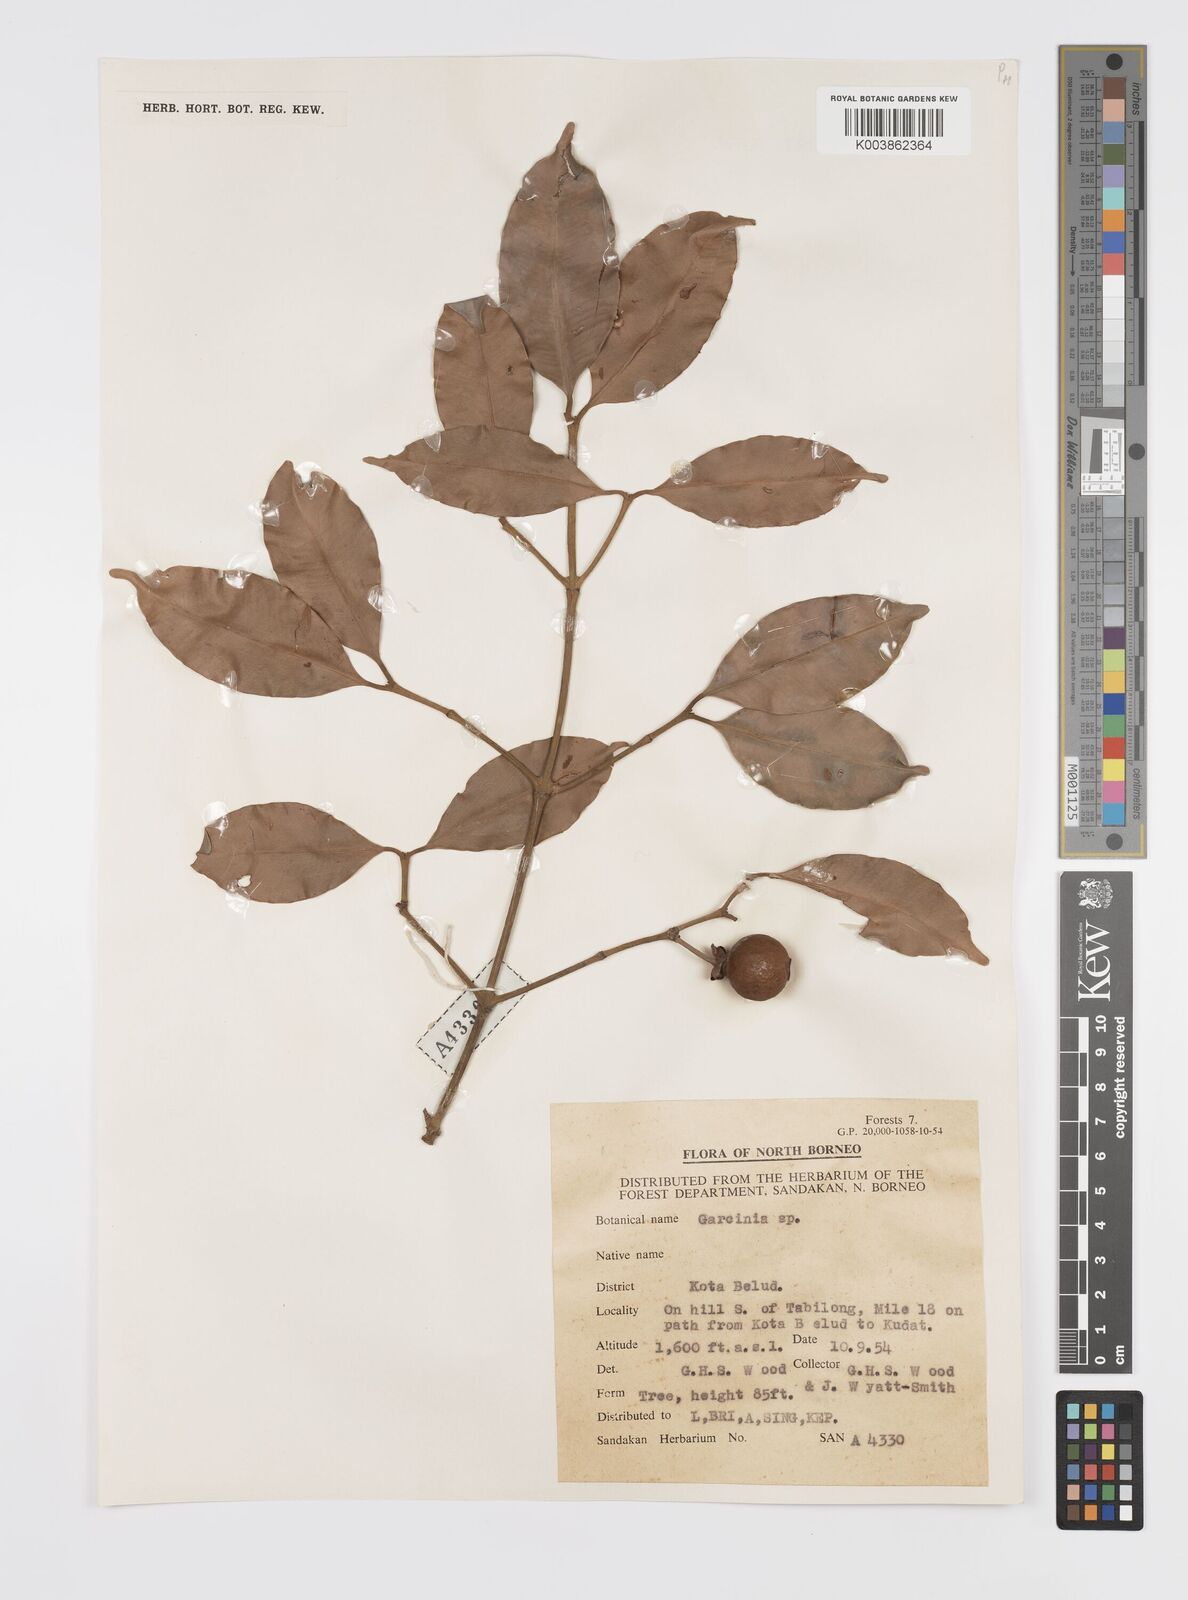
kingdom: Plantae
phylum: Tracheophyta
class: Magnoliopsida
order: Malpighiales
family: Clusiaceae
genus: Garcinia
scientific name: Garcinia venulosa
